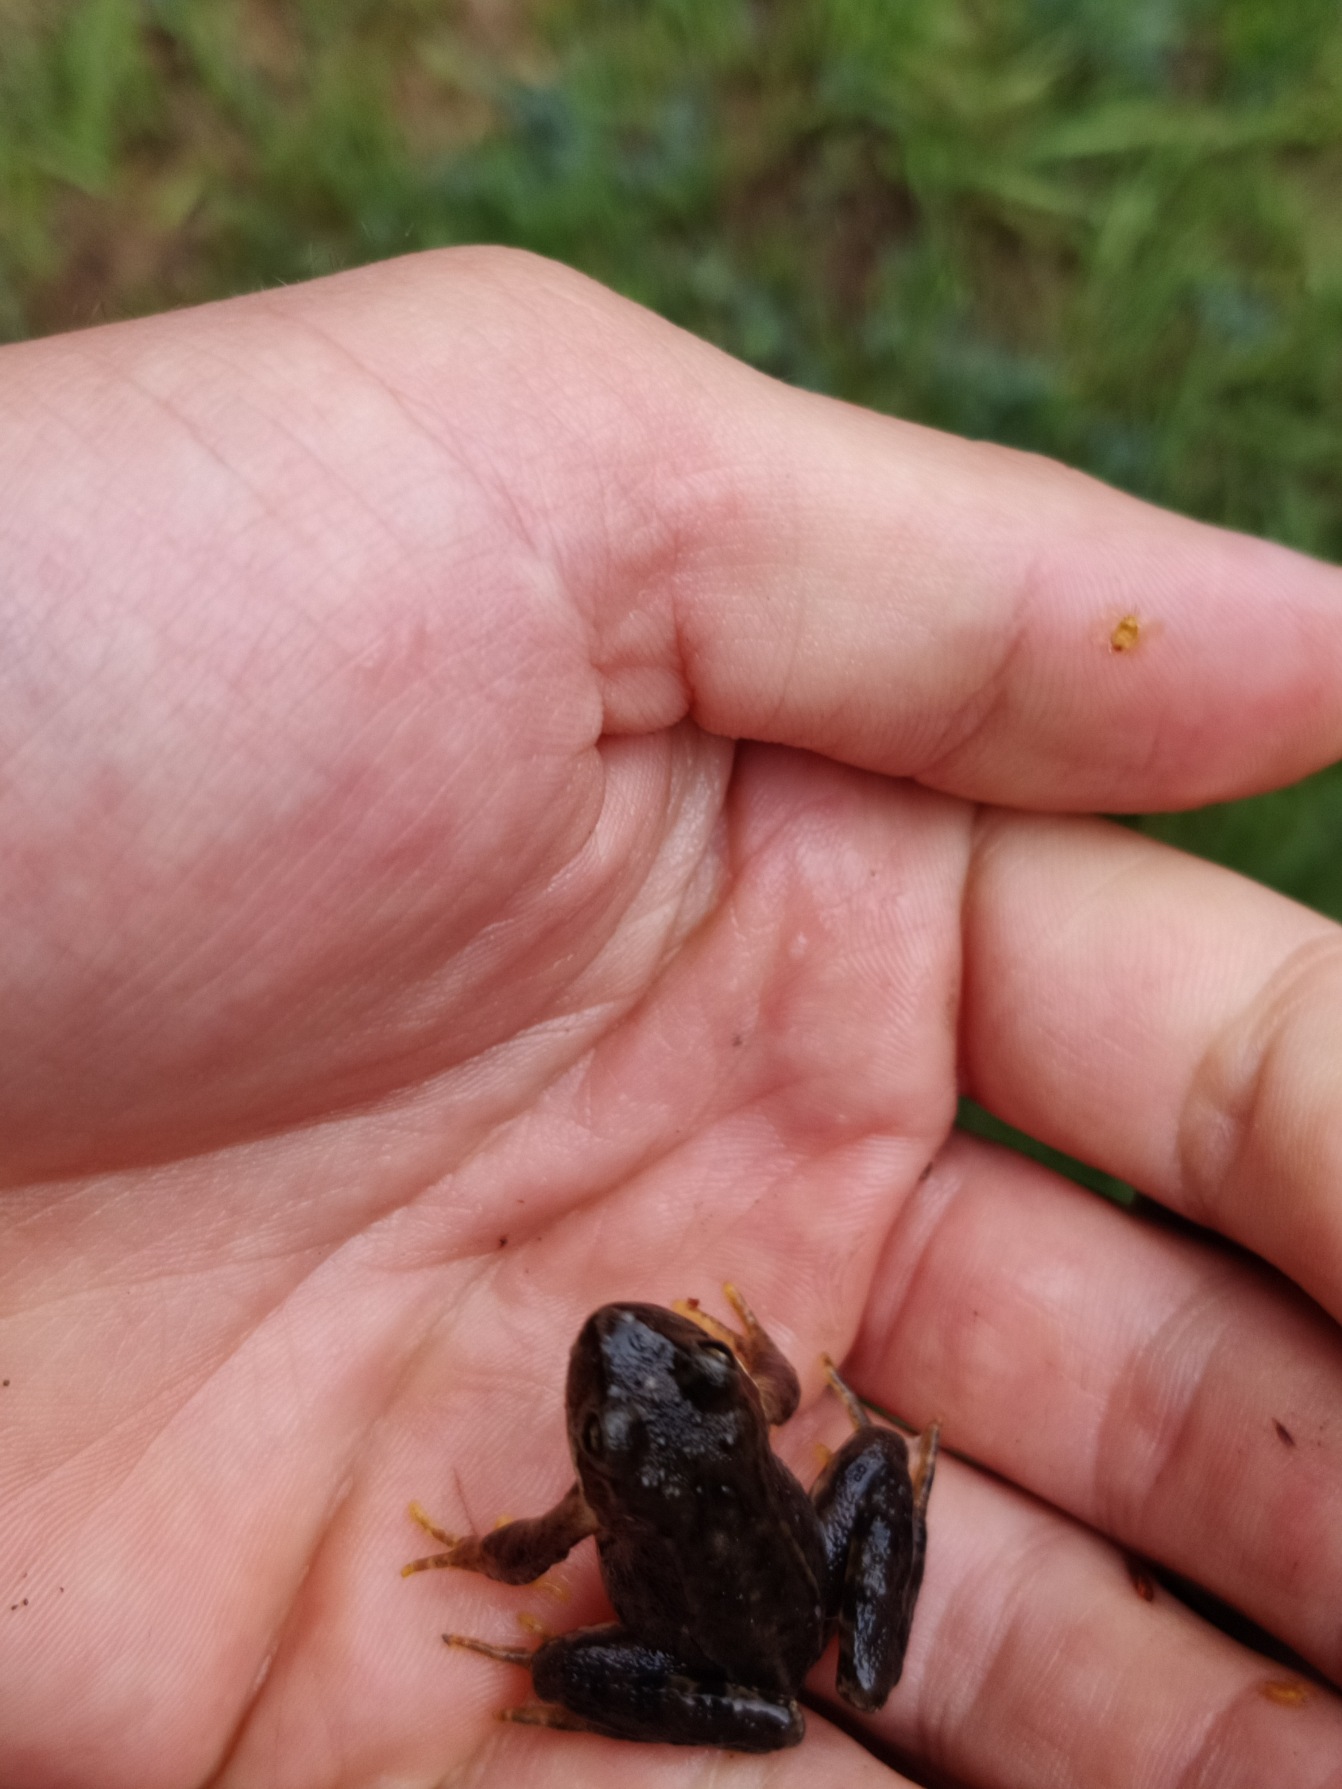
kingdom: Animalia
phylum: Chordata
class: Amphibia
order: Anura
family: Ranidae
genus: Rana
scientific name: Rana temporaria
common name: Butsnudet frø
